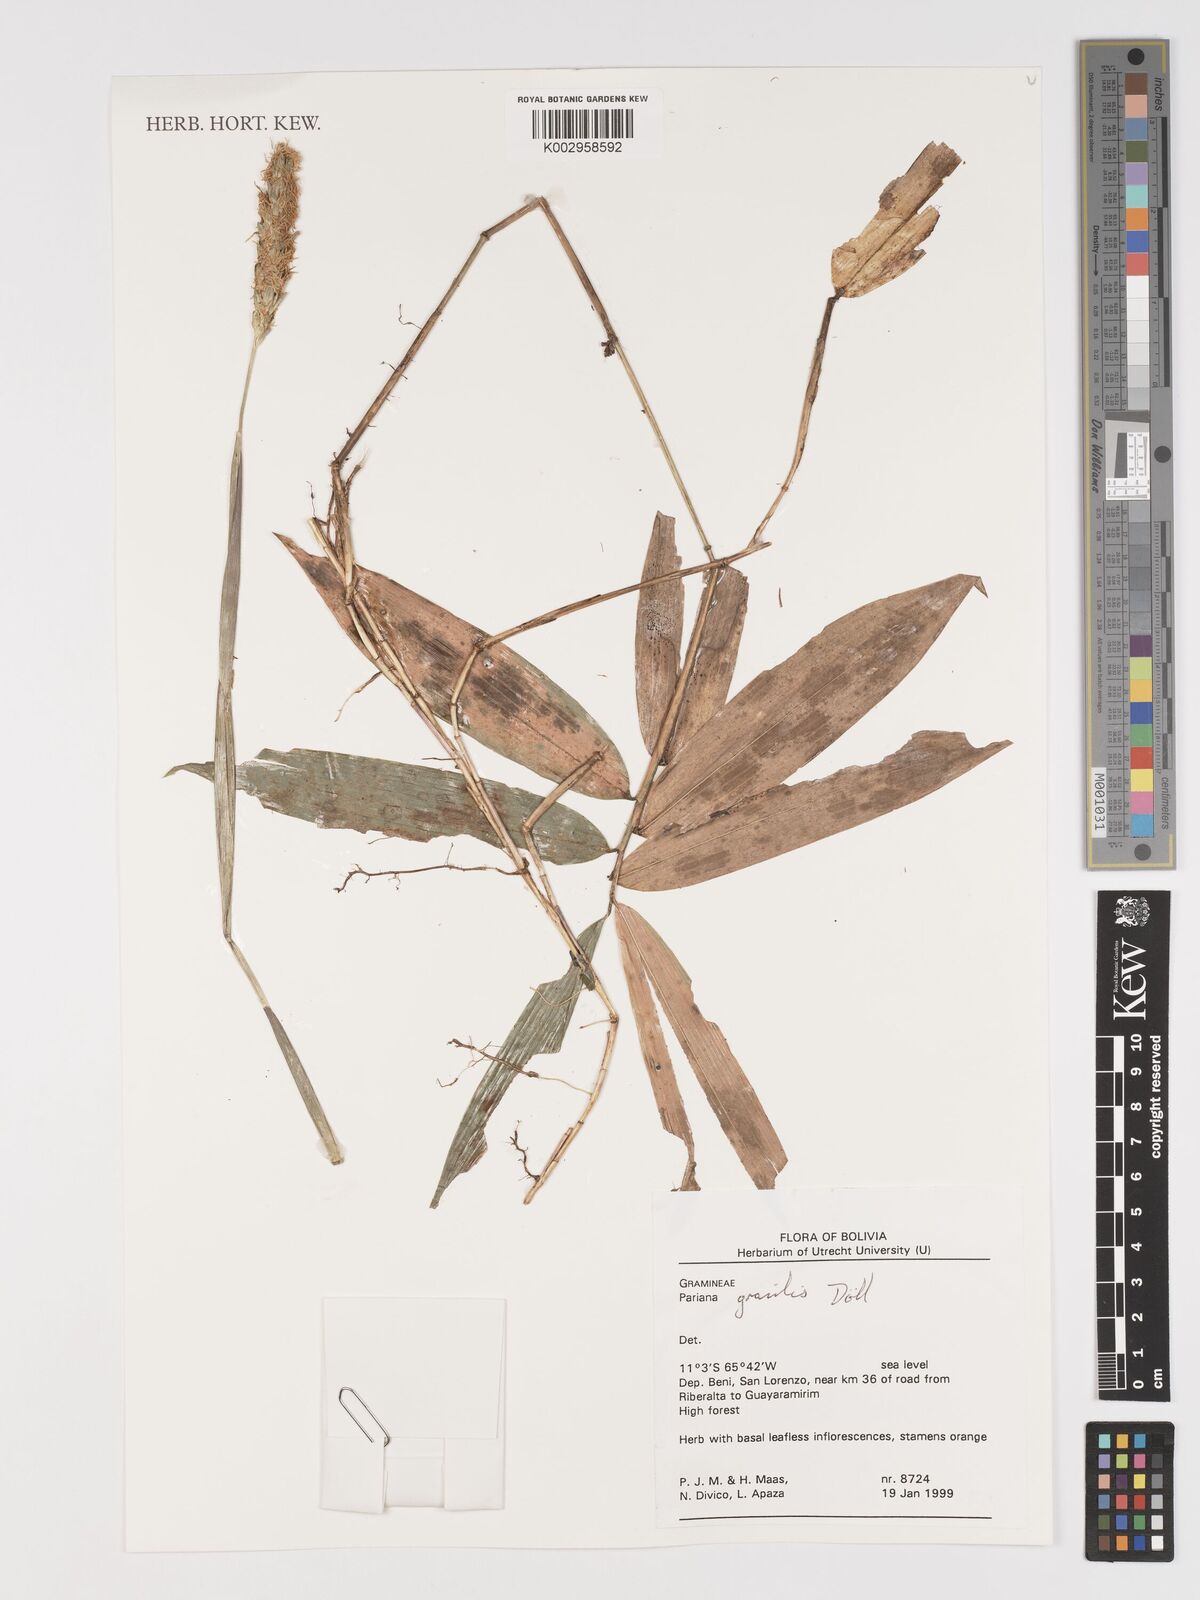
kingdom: Plantae
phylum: Tracheophyta
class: Liliopsida
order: Poales
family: Poaceae
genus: Pariana
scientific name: Pariana gracilis
